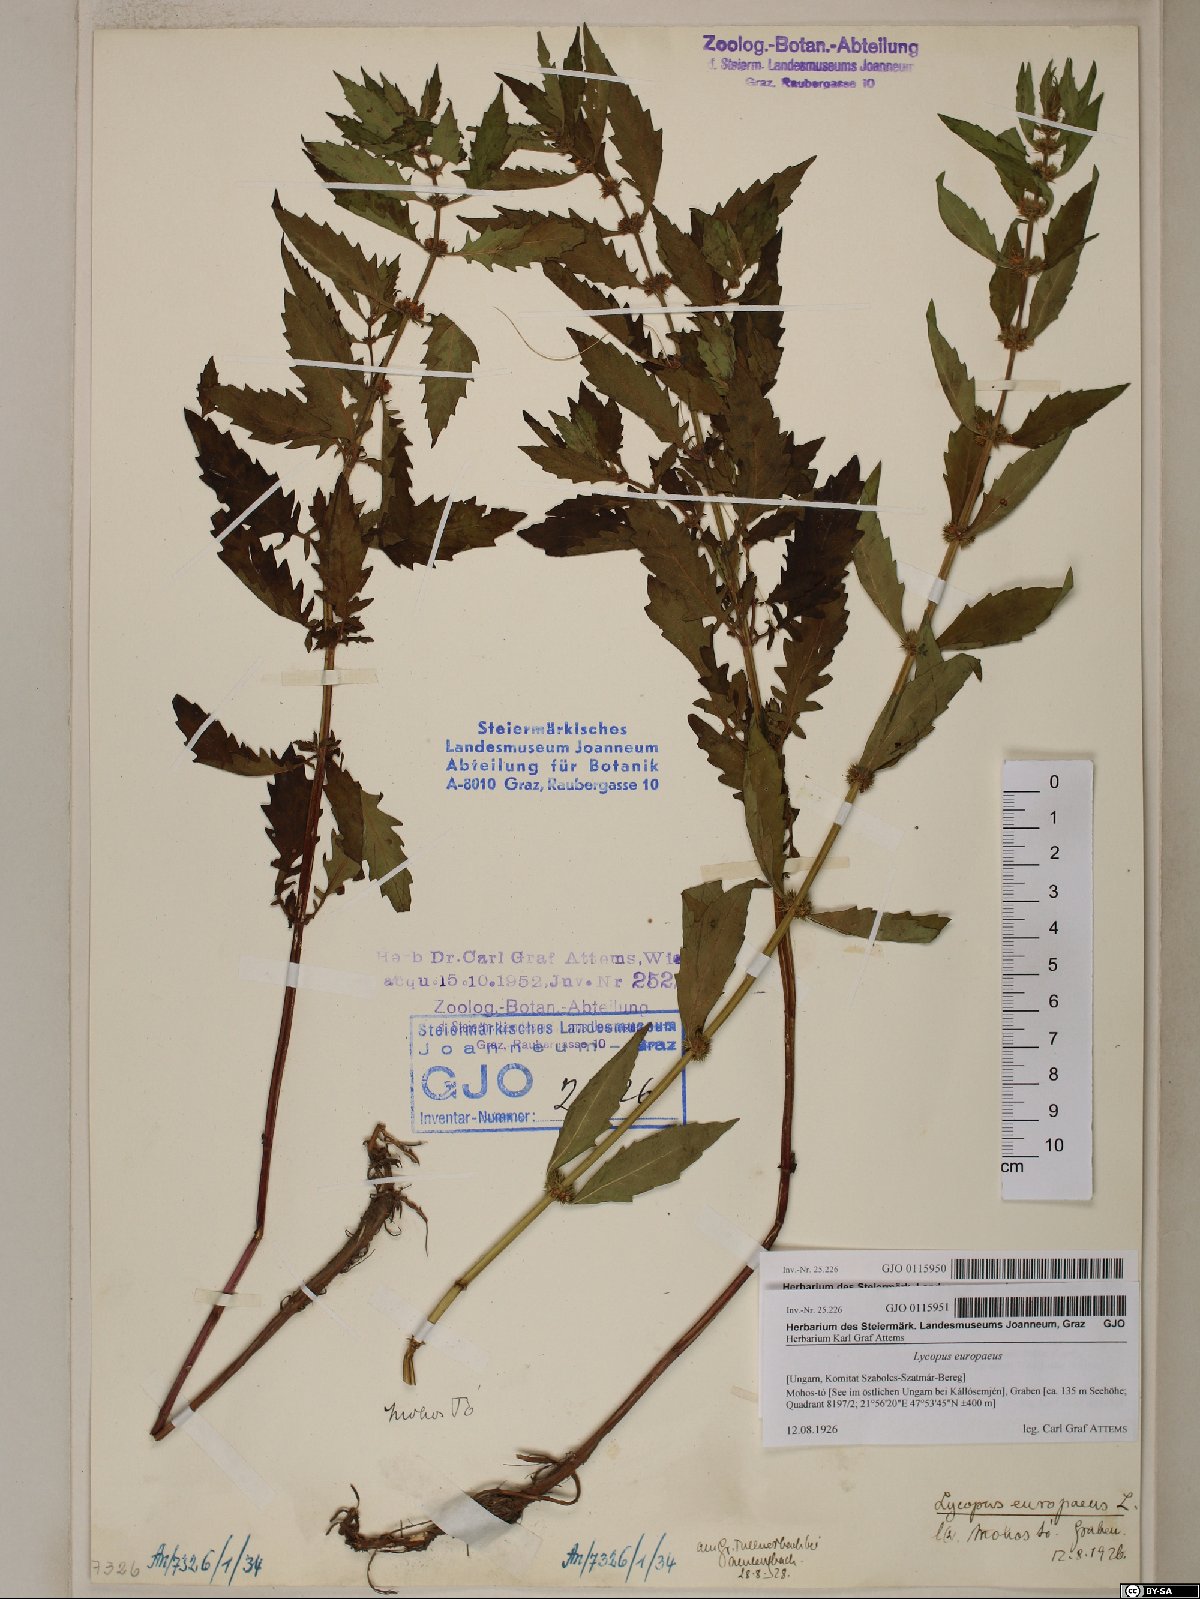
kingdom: Plantae
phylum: Tracheophyta
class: Magnoliopsida
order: Lamiales
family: Lamiaceae
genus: Lycopus
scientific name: Lycopus europaeus
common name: European bugleweed
